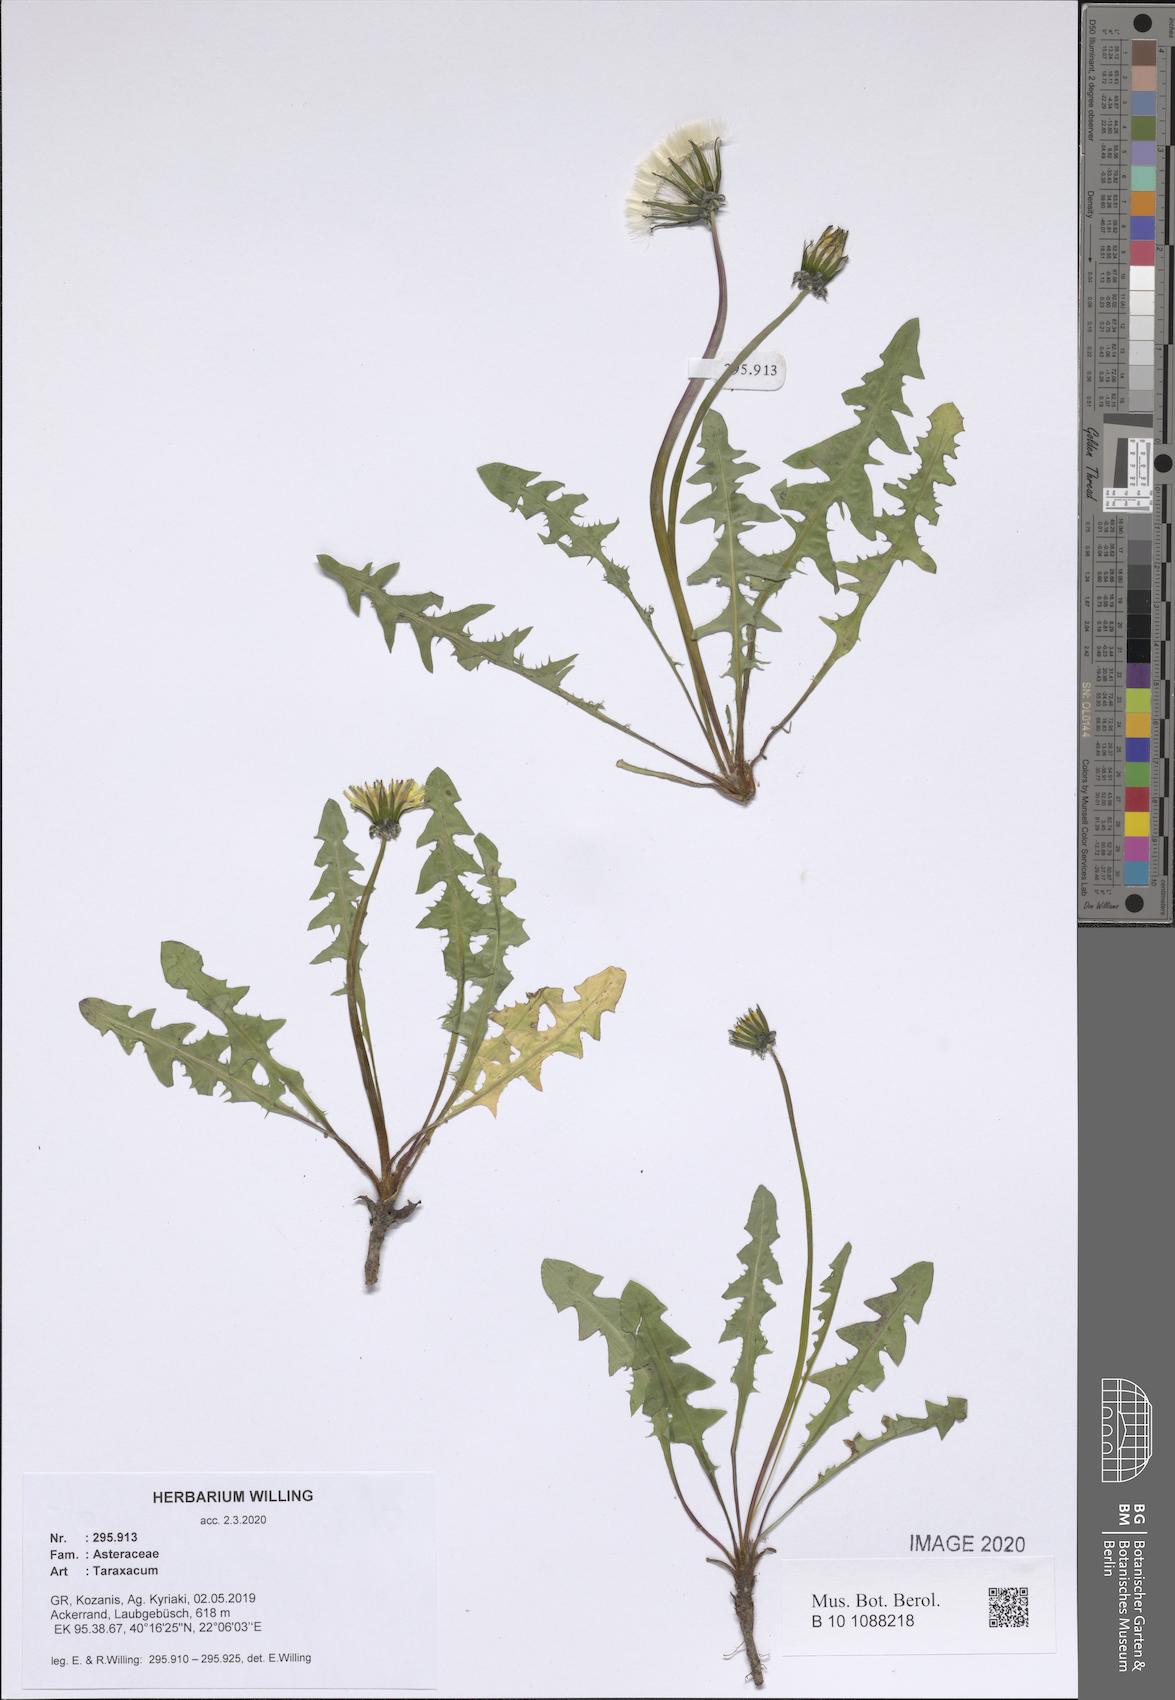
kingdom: Plantae
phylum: Tracheophyta
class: Magnoliopsida
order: Asterales
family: Asteraceae
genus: Taraxacum
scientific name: Taraxacum
